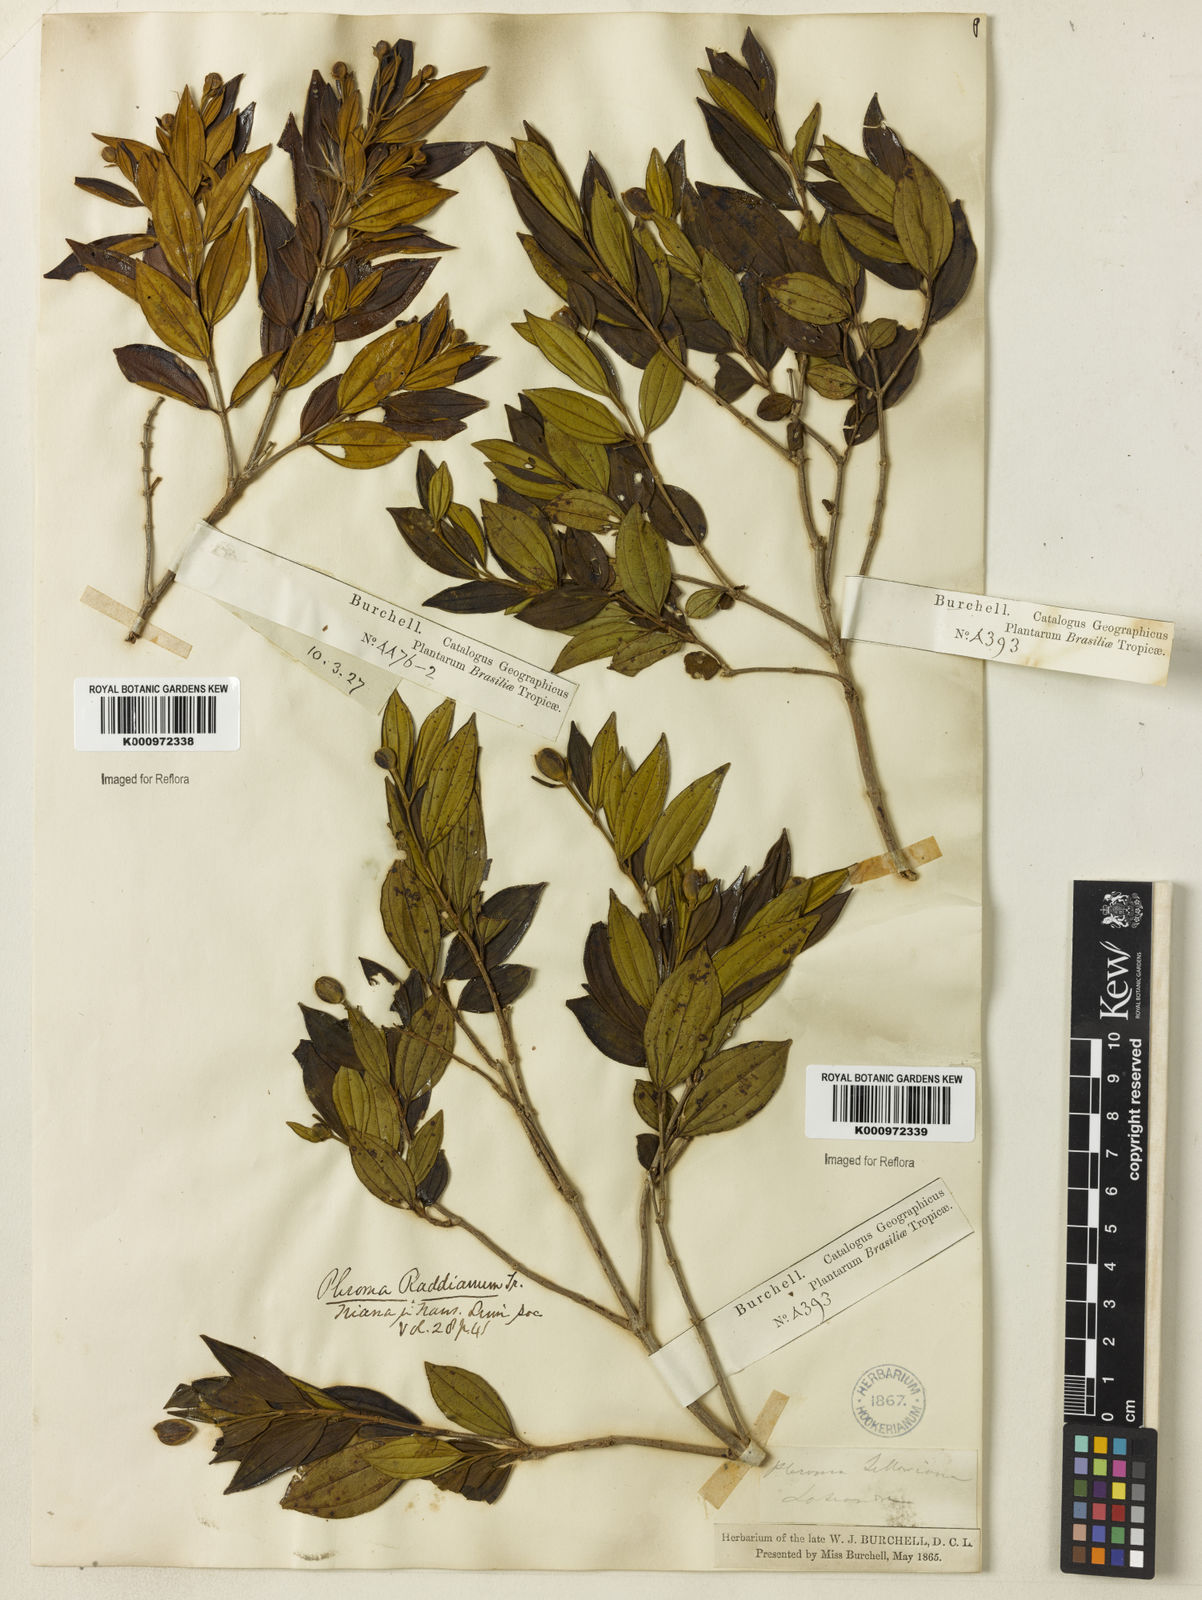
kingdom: Plantae
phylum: Tracheophyta
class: Magnoliopsida
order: Myrtales
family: Melastomataceae
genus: Pleroma
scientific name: Pleroma sellowianum
